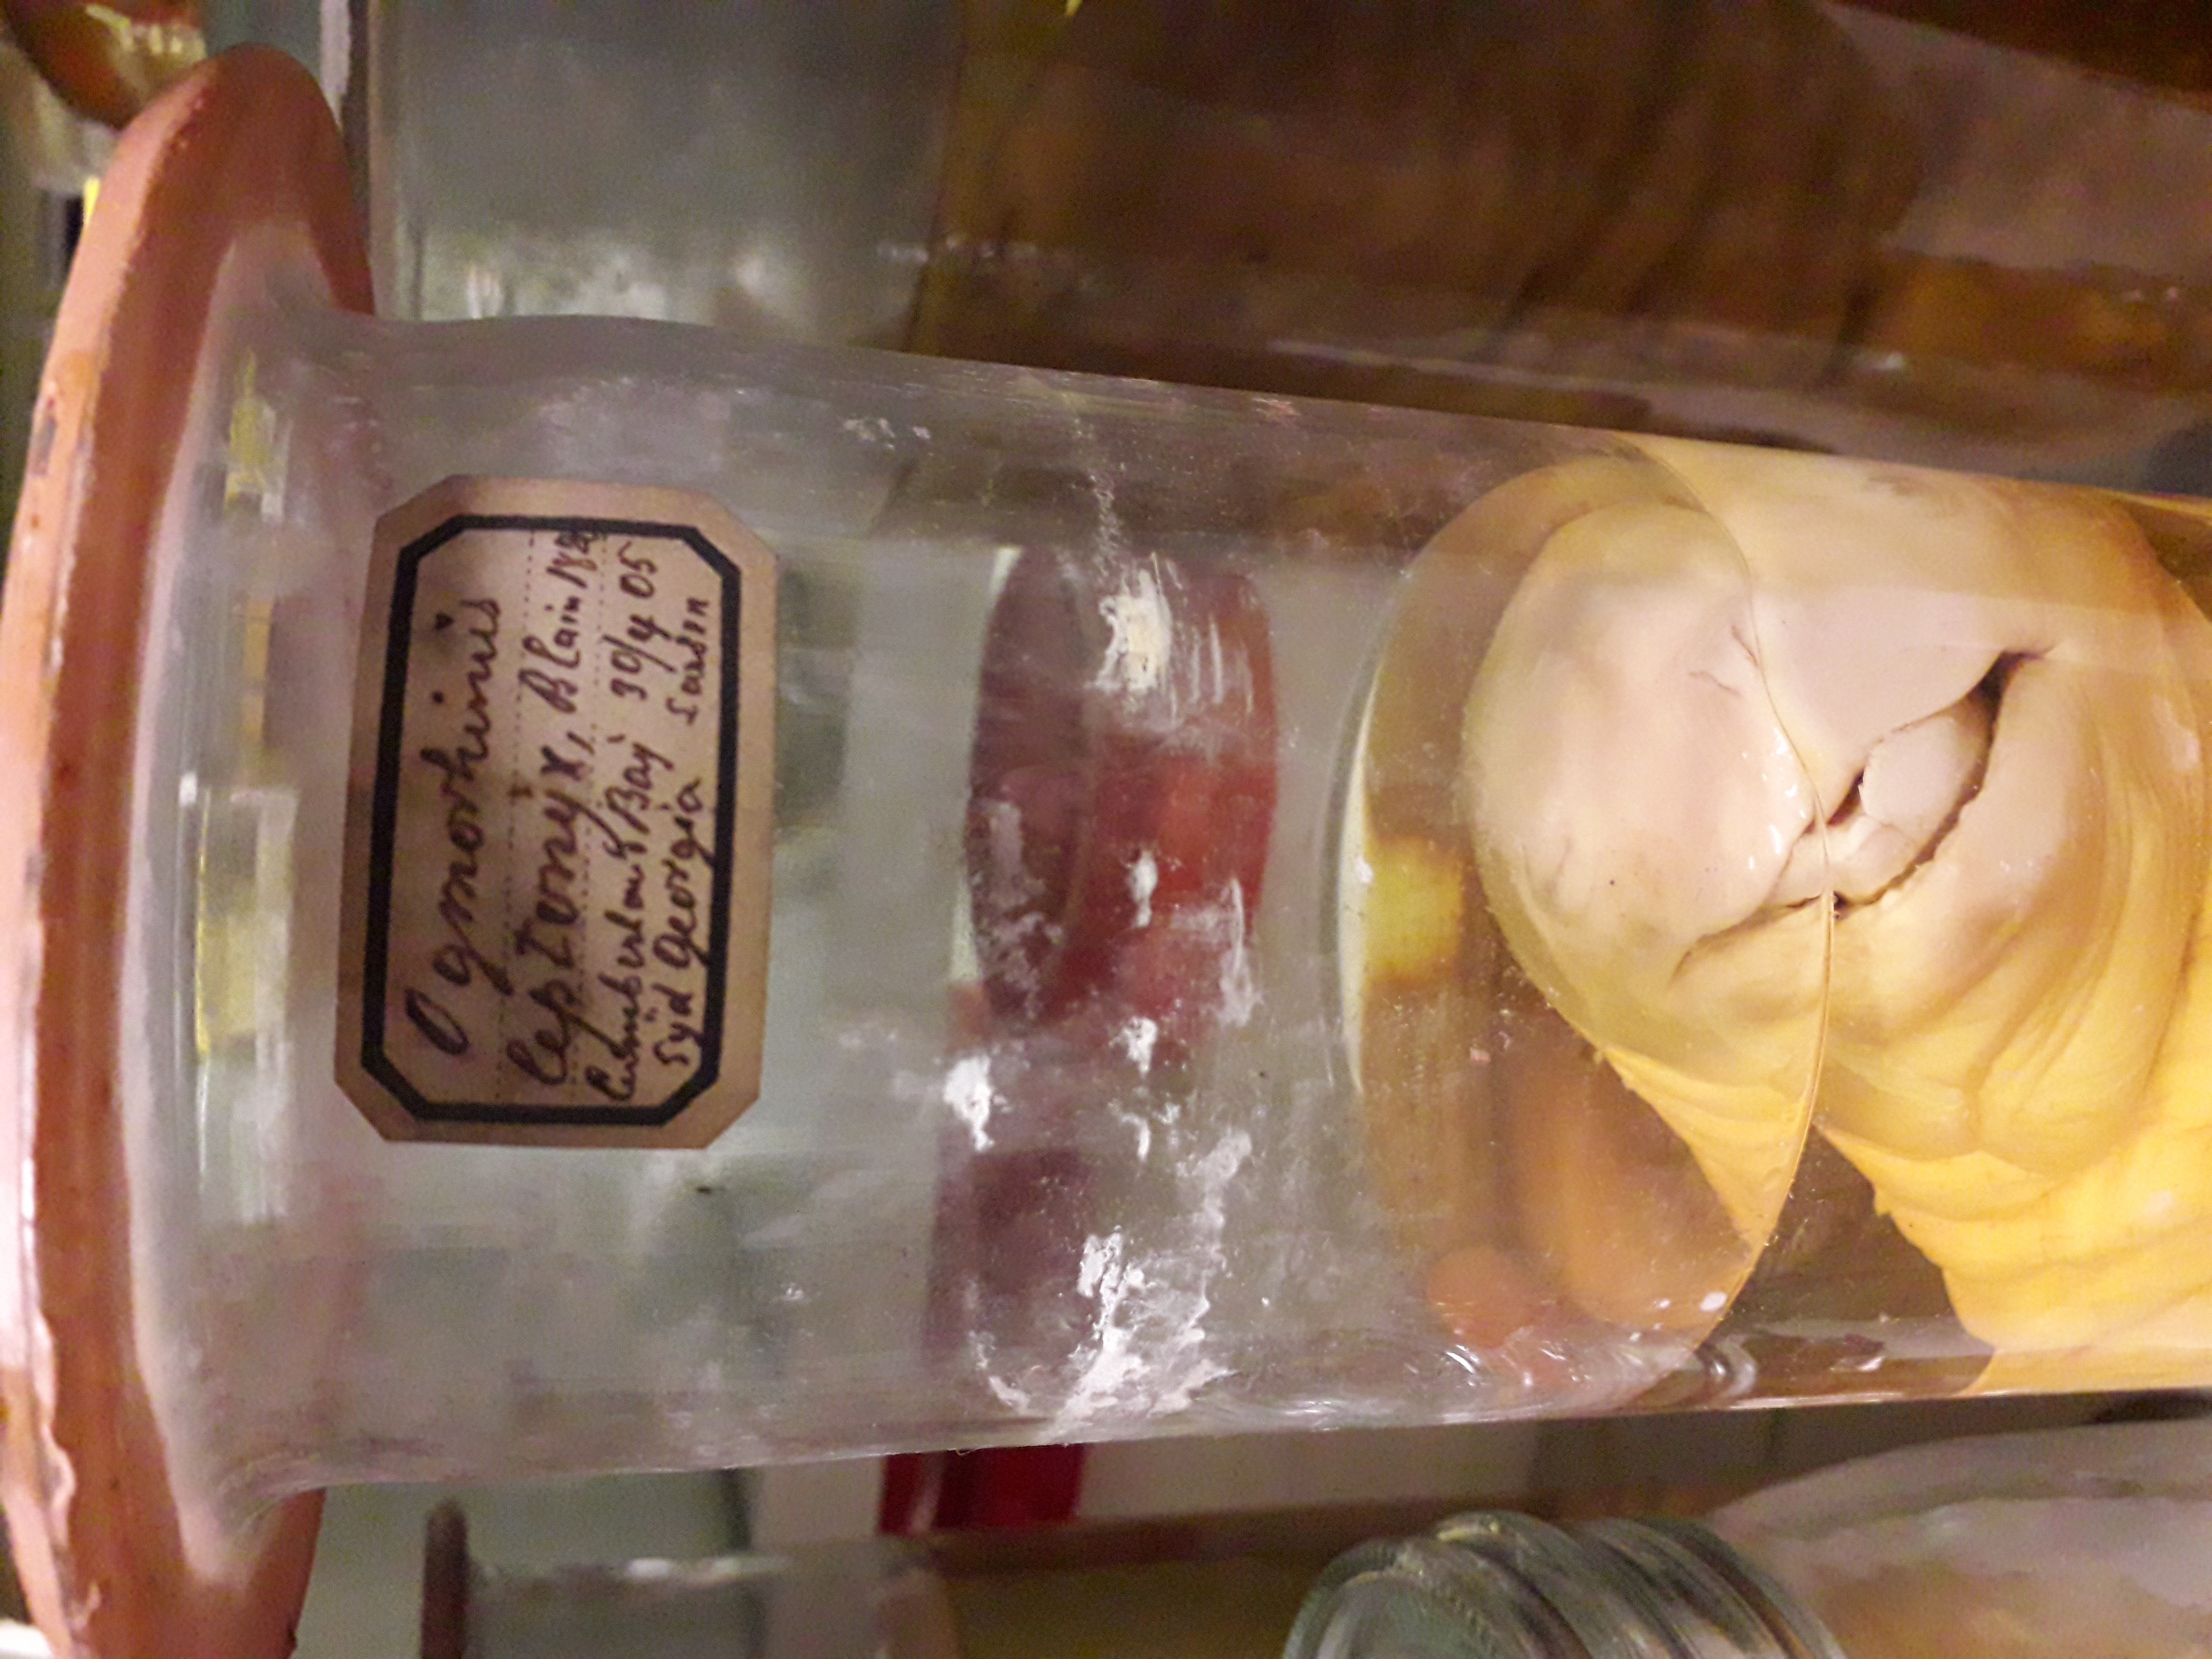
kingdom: Animalia
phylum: Chordata
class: Mammalia
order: Carnivora
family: Phocidae
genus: Hydrurga
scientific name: Hydrurga leptonyx
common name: Leopard seal
